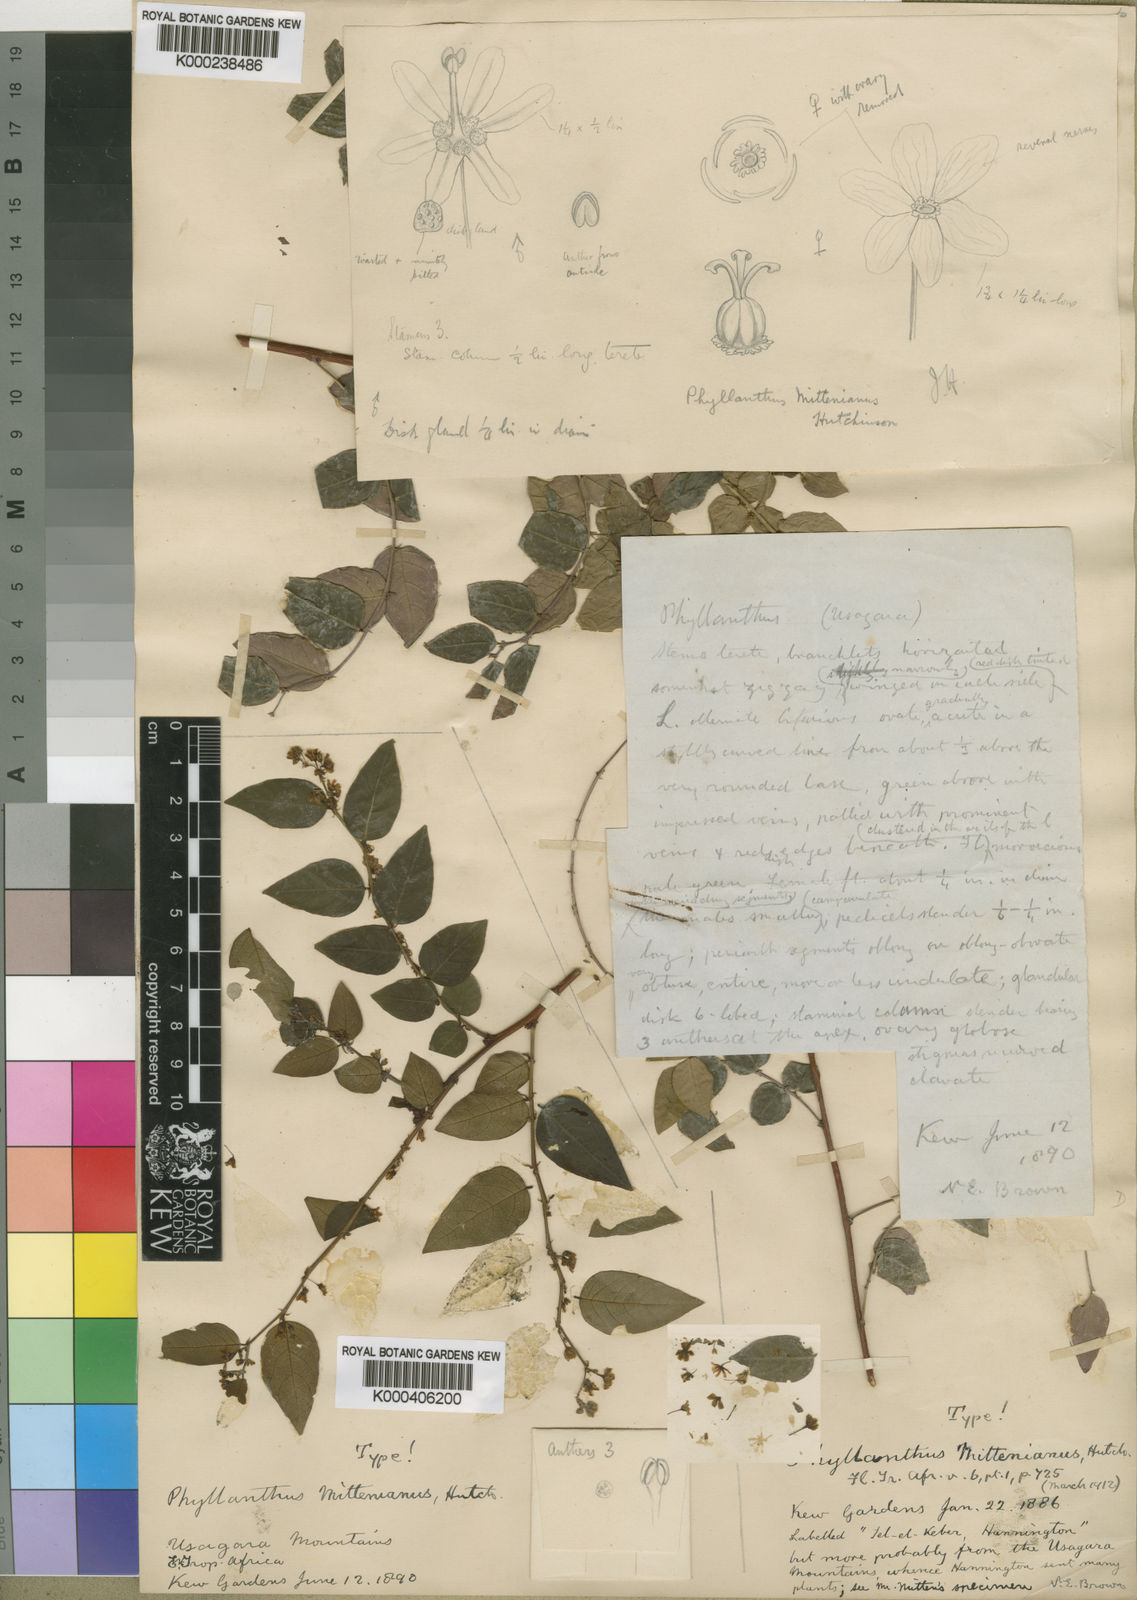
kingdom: Plantae
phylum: Tracheophyta
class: Magnoliopsida
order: Malpighiales
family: Phyllanthaceae
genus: Phyllanthus
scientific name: Phyllanthus mittenianus
